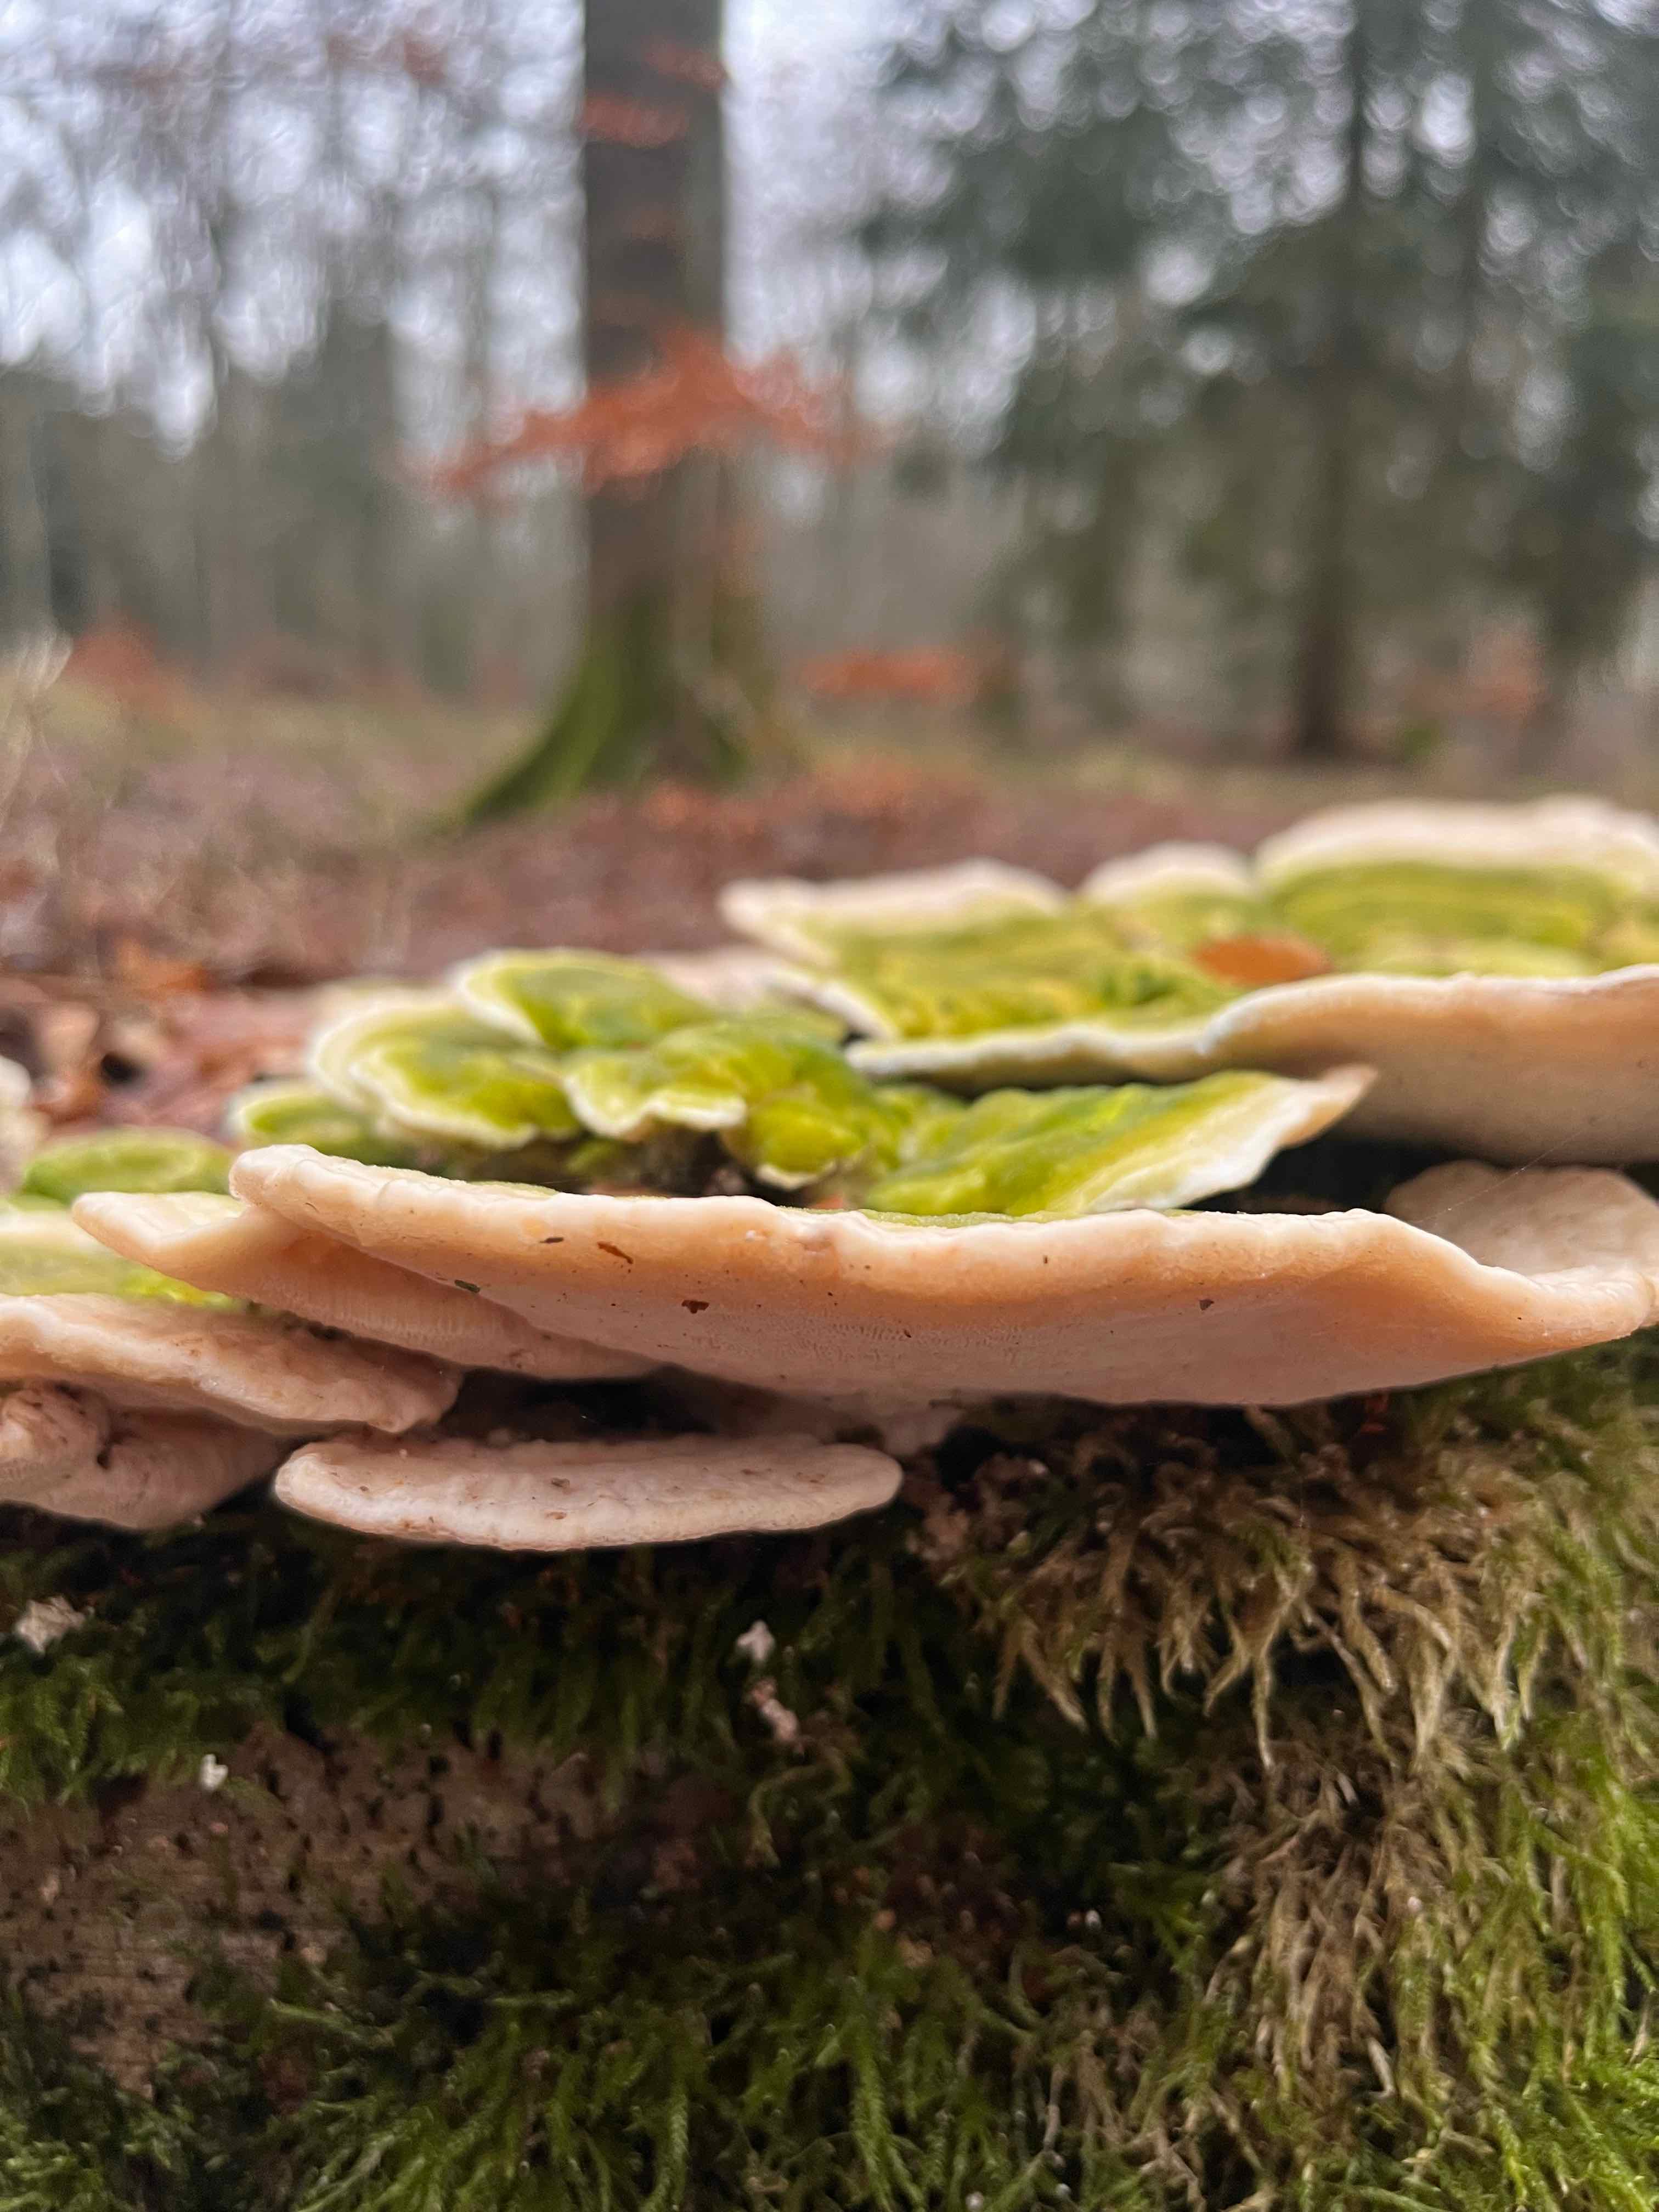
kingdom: Fungi
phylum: Basidiomycota
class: Agaricomycetes
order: Polyporales
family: Polyporaceae
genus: Trametes
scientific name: Trametes gibbosa
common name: puklet læderporesvamp
